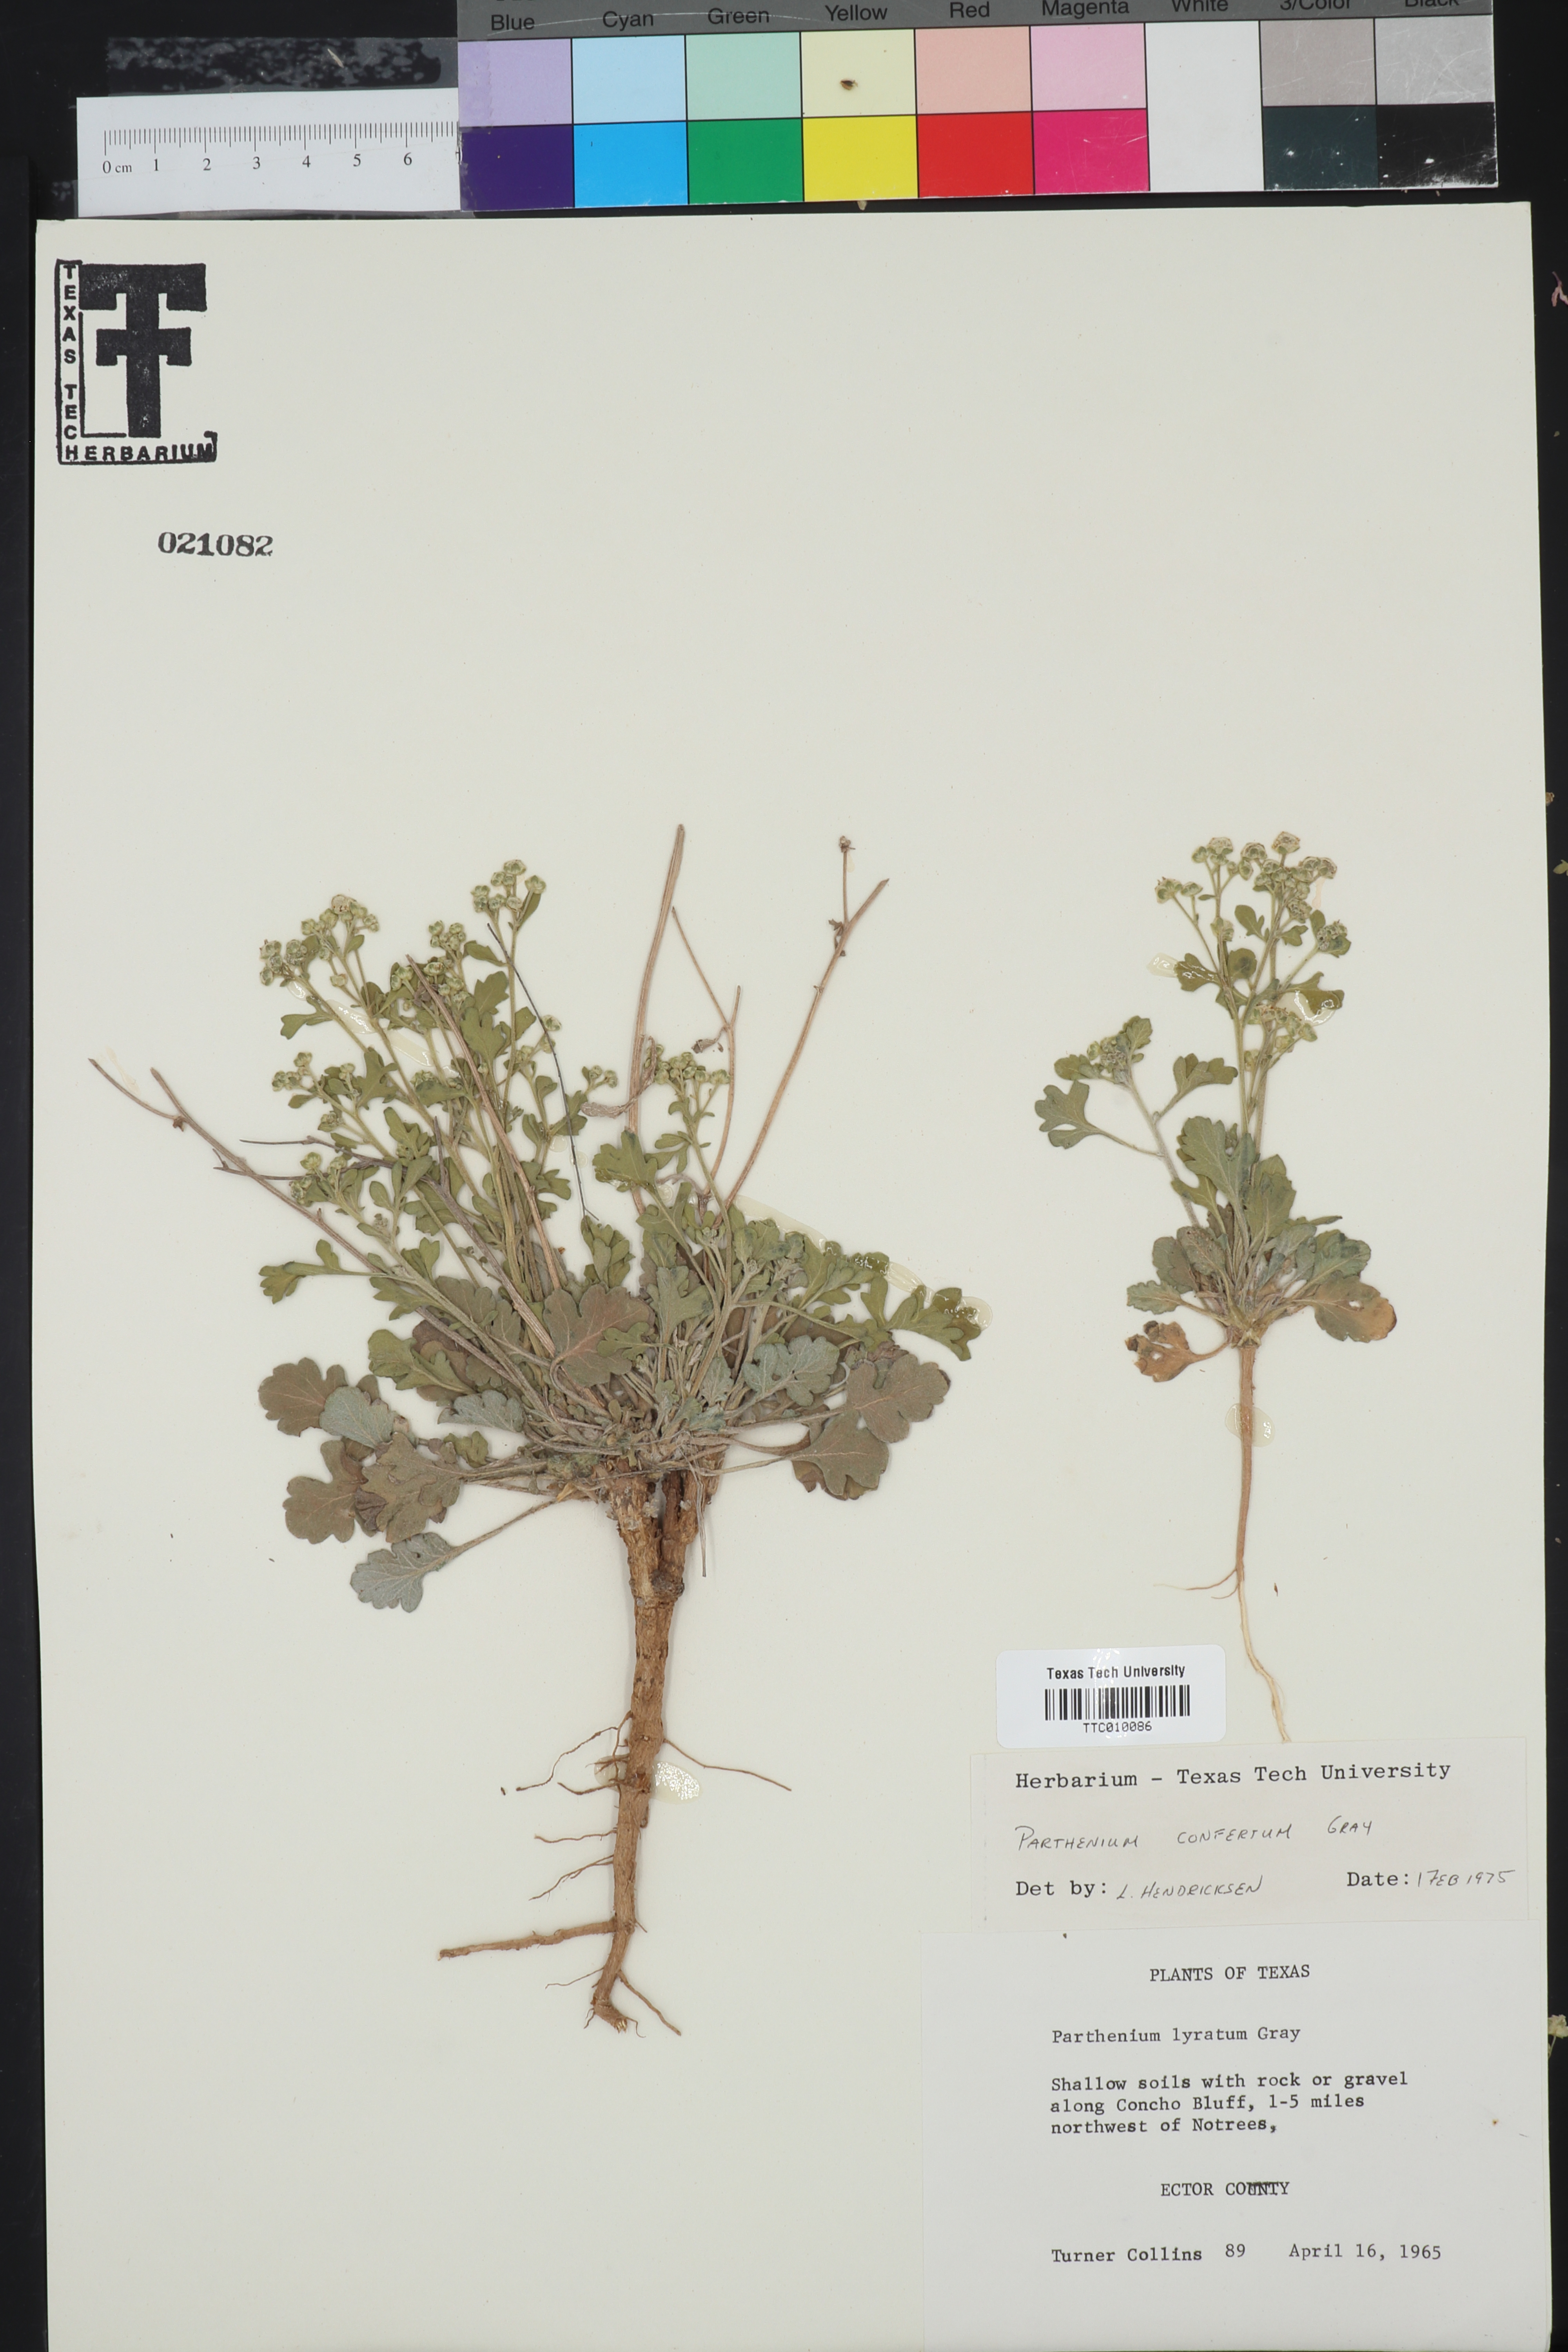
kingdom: Plantae
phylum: Tracheophyta
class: Magnoliopsida
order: Asterales
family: Asteraceae
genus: Parthenium
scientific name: Parthenium confertum
